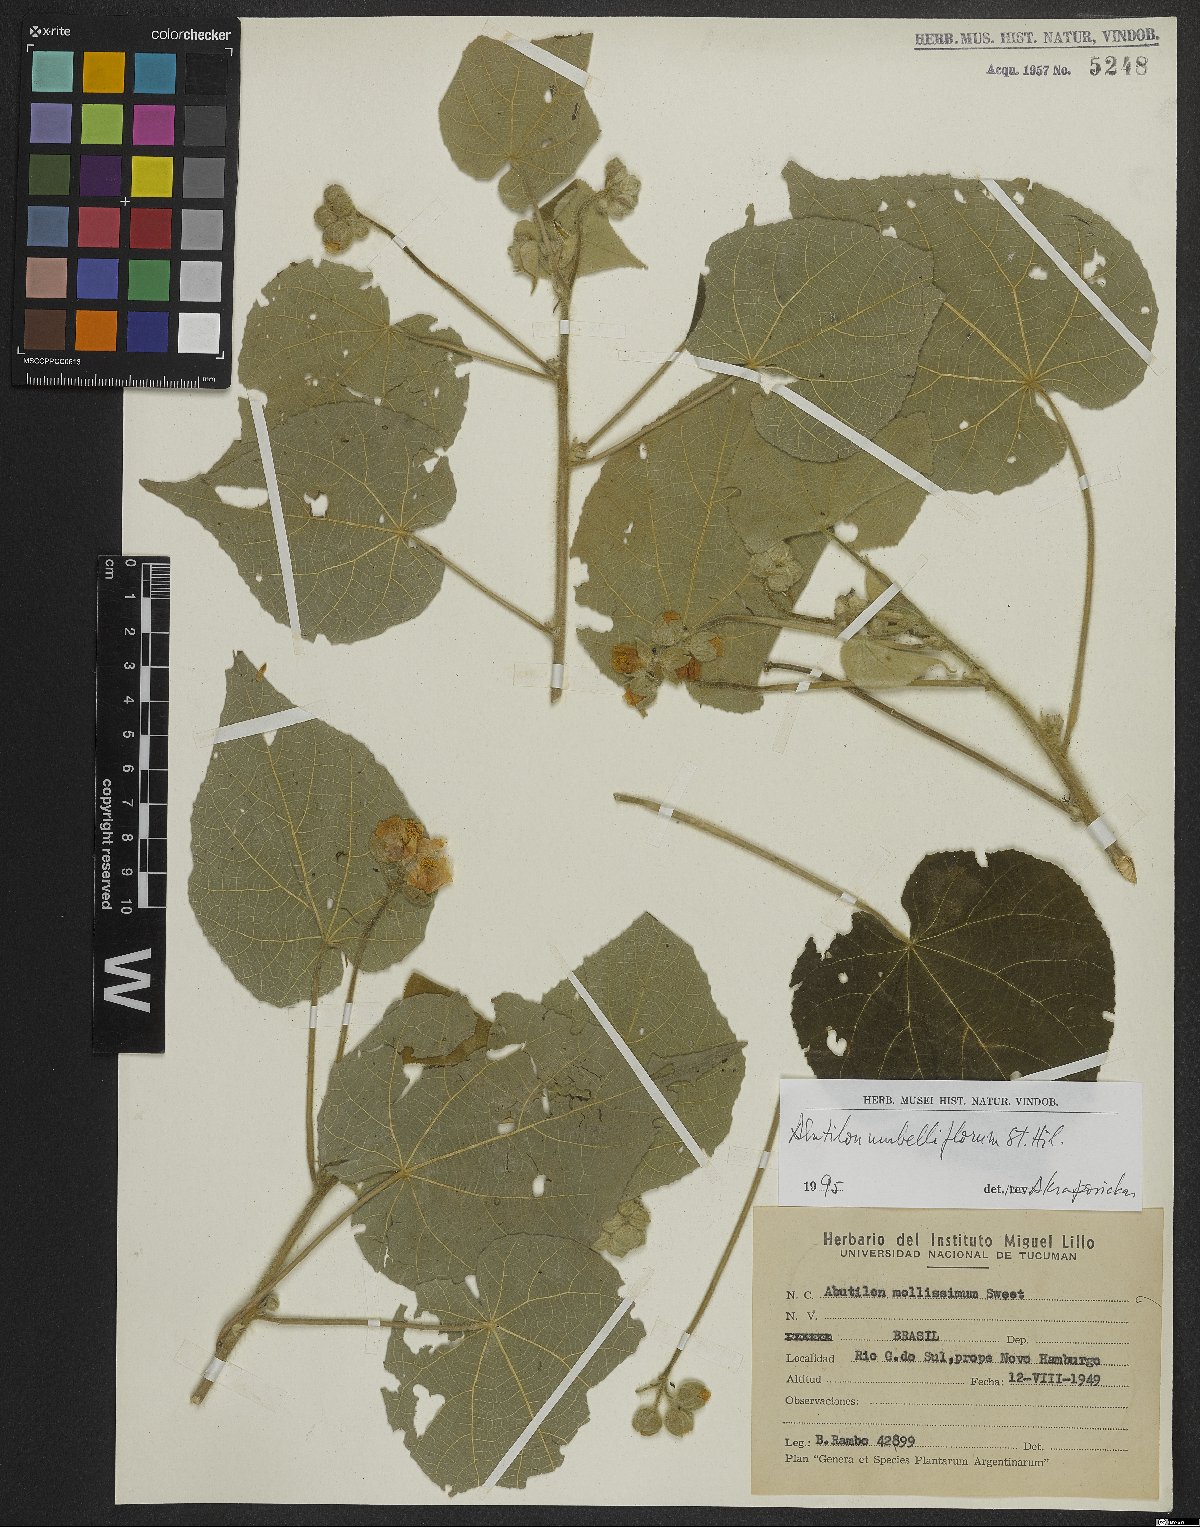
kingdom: Plantae
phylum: Tracheophyta
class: Magnoliopsida
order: Malvales
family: Malvaceae
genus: Abutilon
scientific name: Abutilon umbelliflorum
